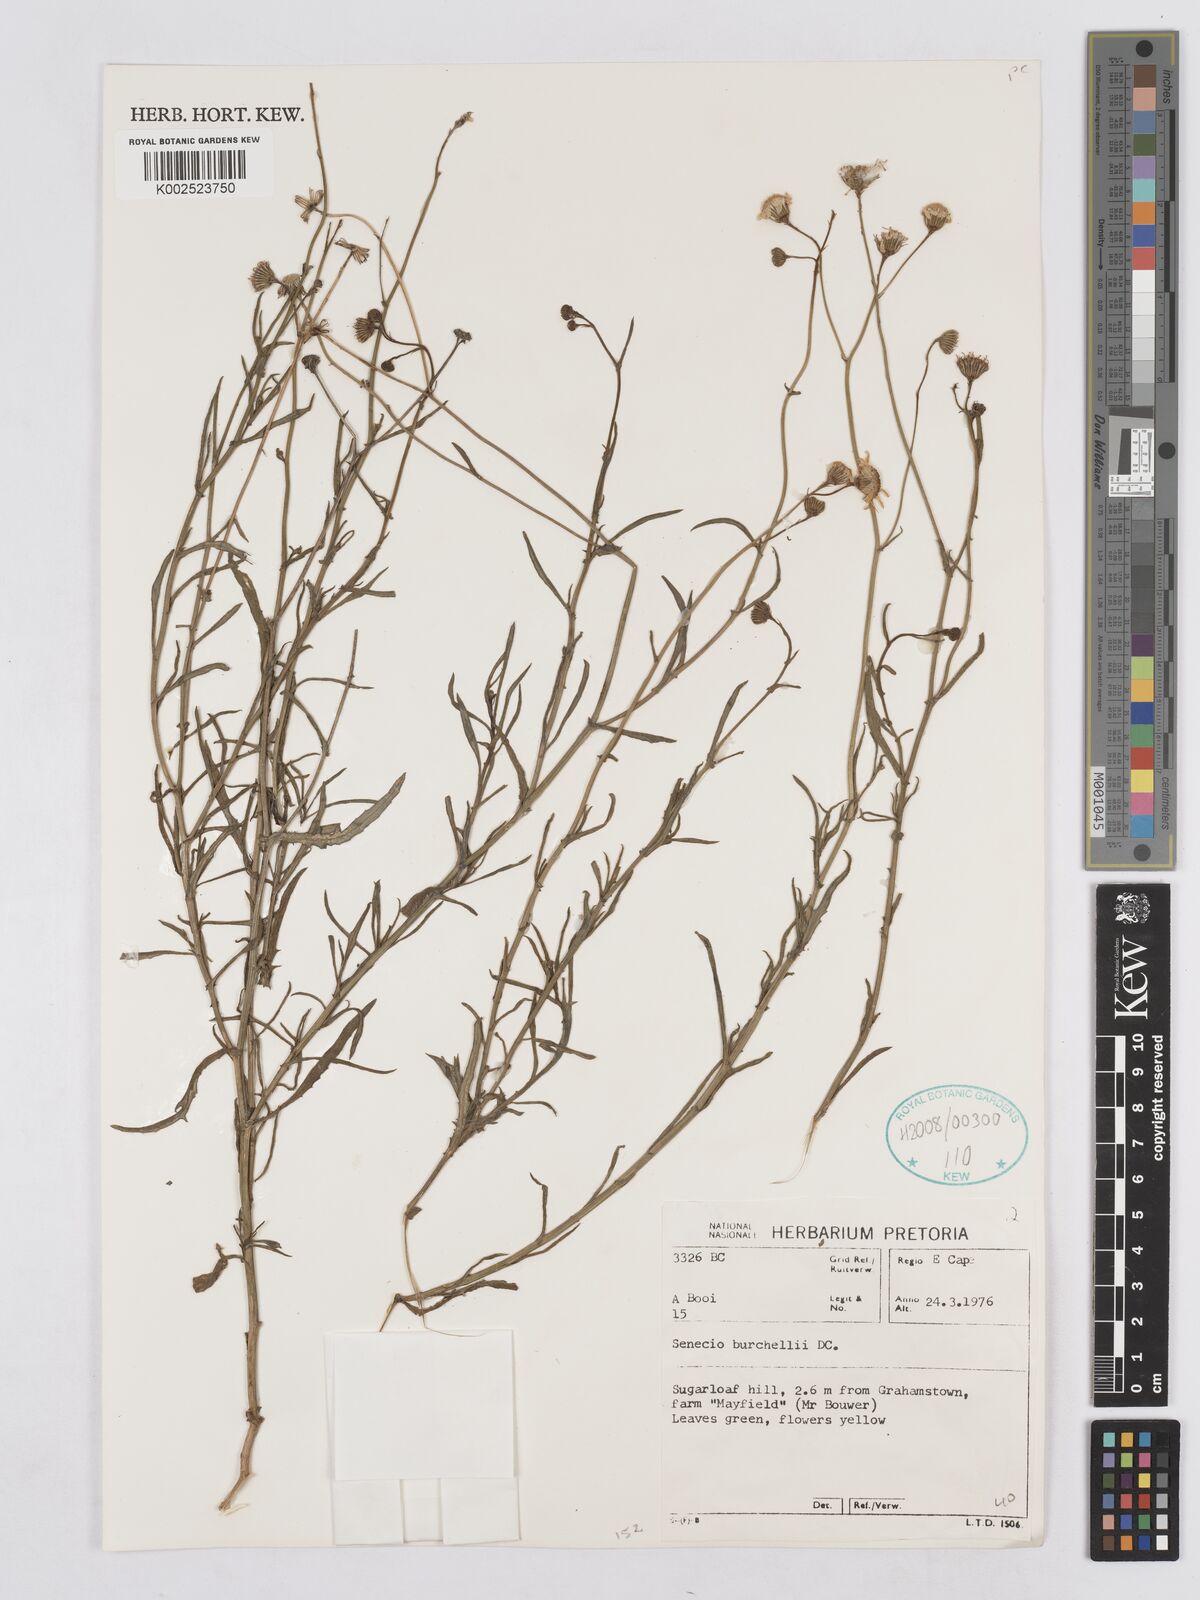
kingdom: Plantae
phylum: Tracheophyta
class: Magnoliopsida
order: Asterales
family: Asteraceae
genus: Senecio
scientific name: Senecio burchellii
